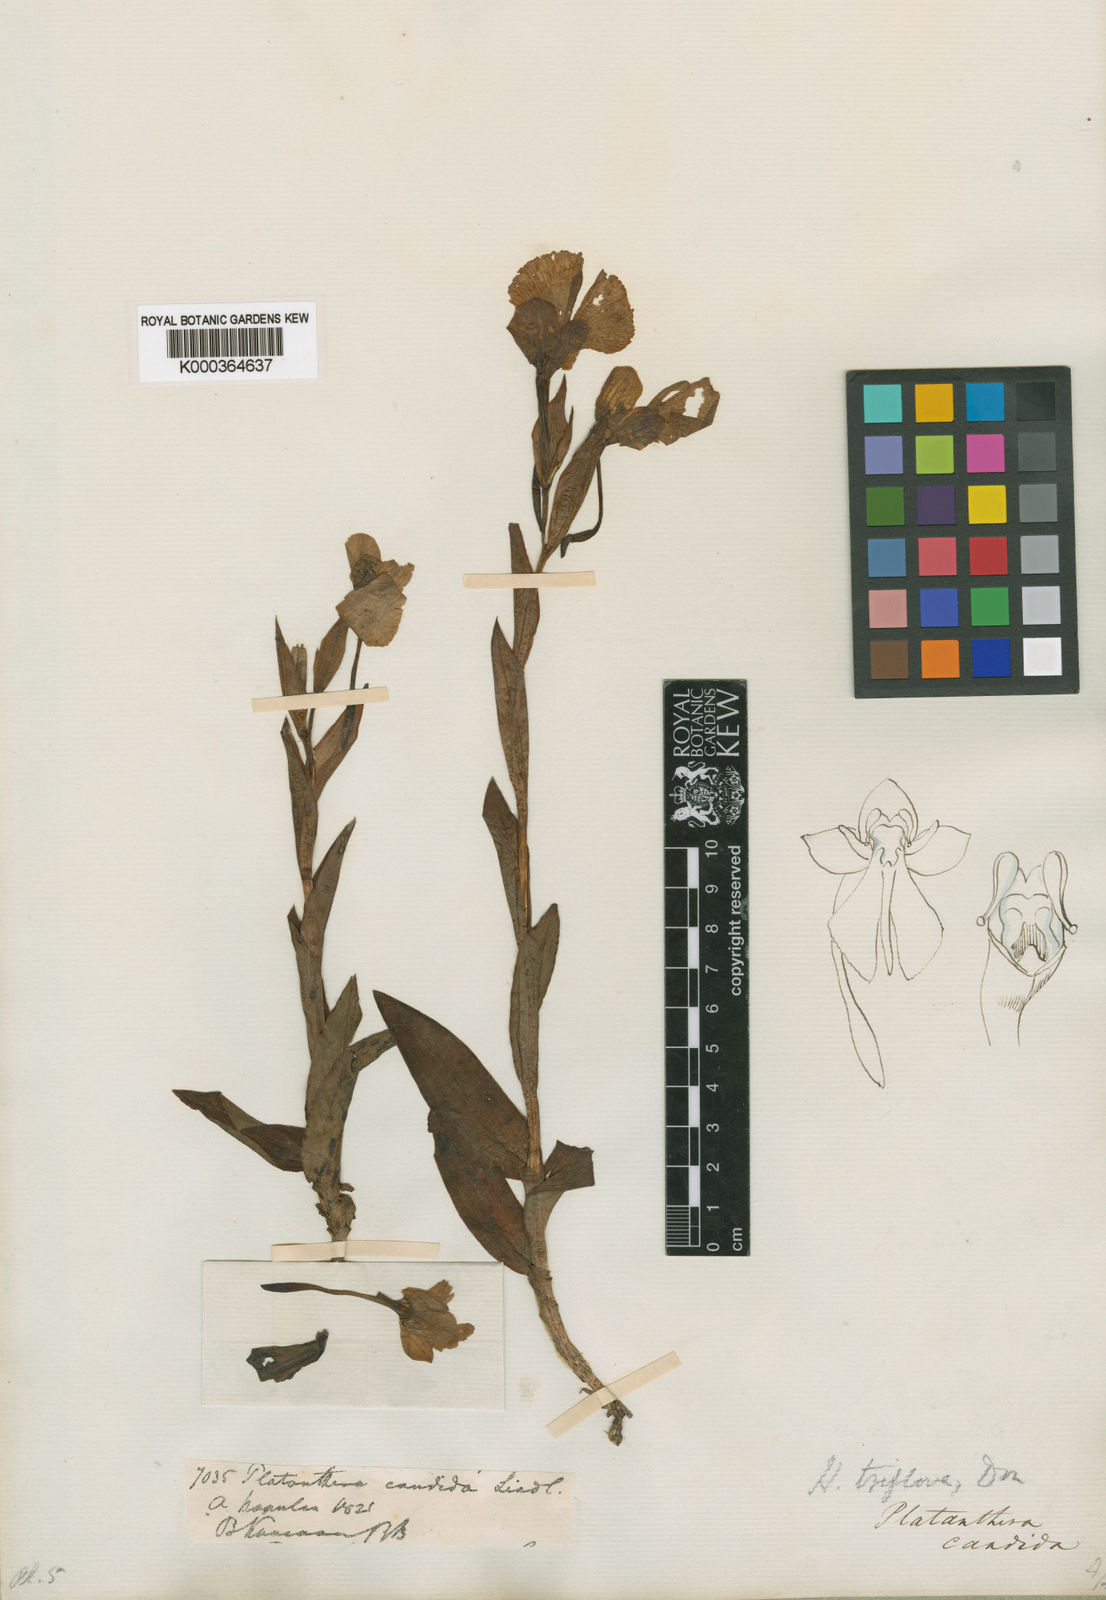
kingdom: Plantae
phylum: Tracheophyta
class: Liliopsida
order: Asparagales
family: Orchidaceae
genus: Pecteilis
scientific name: Pecteilis triflora
